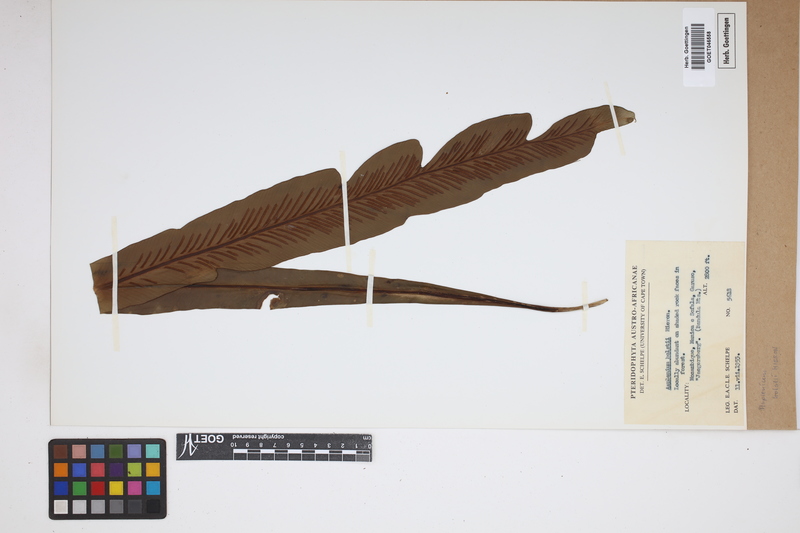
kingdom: Plantae
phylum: Tracheophyta
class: Polypodiopsida
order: Polypodiales
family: Aspleniaceae
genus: Asplenium
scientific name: Asplenium holstii
